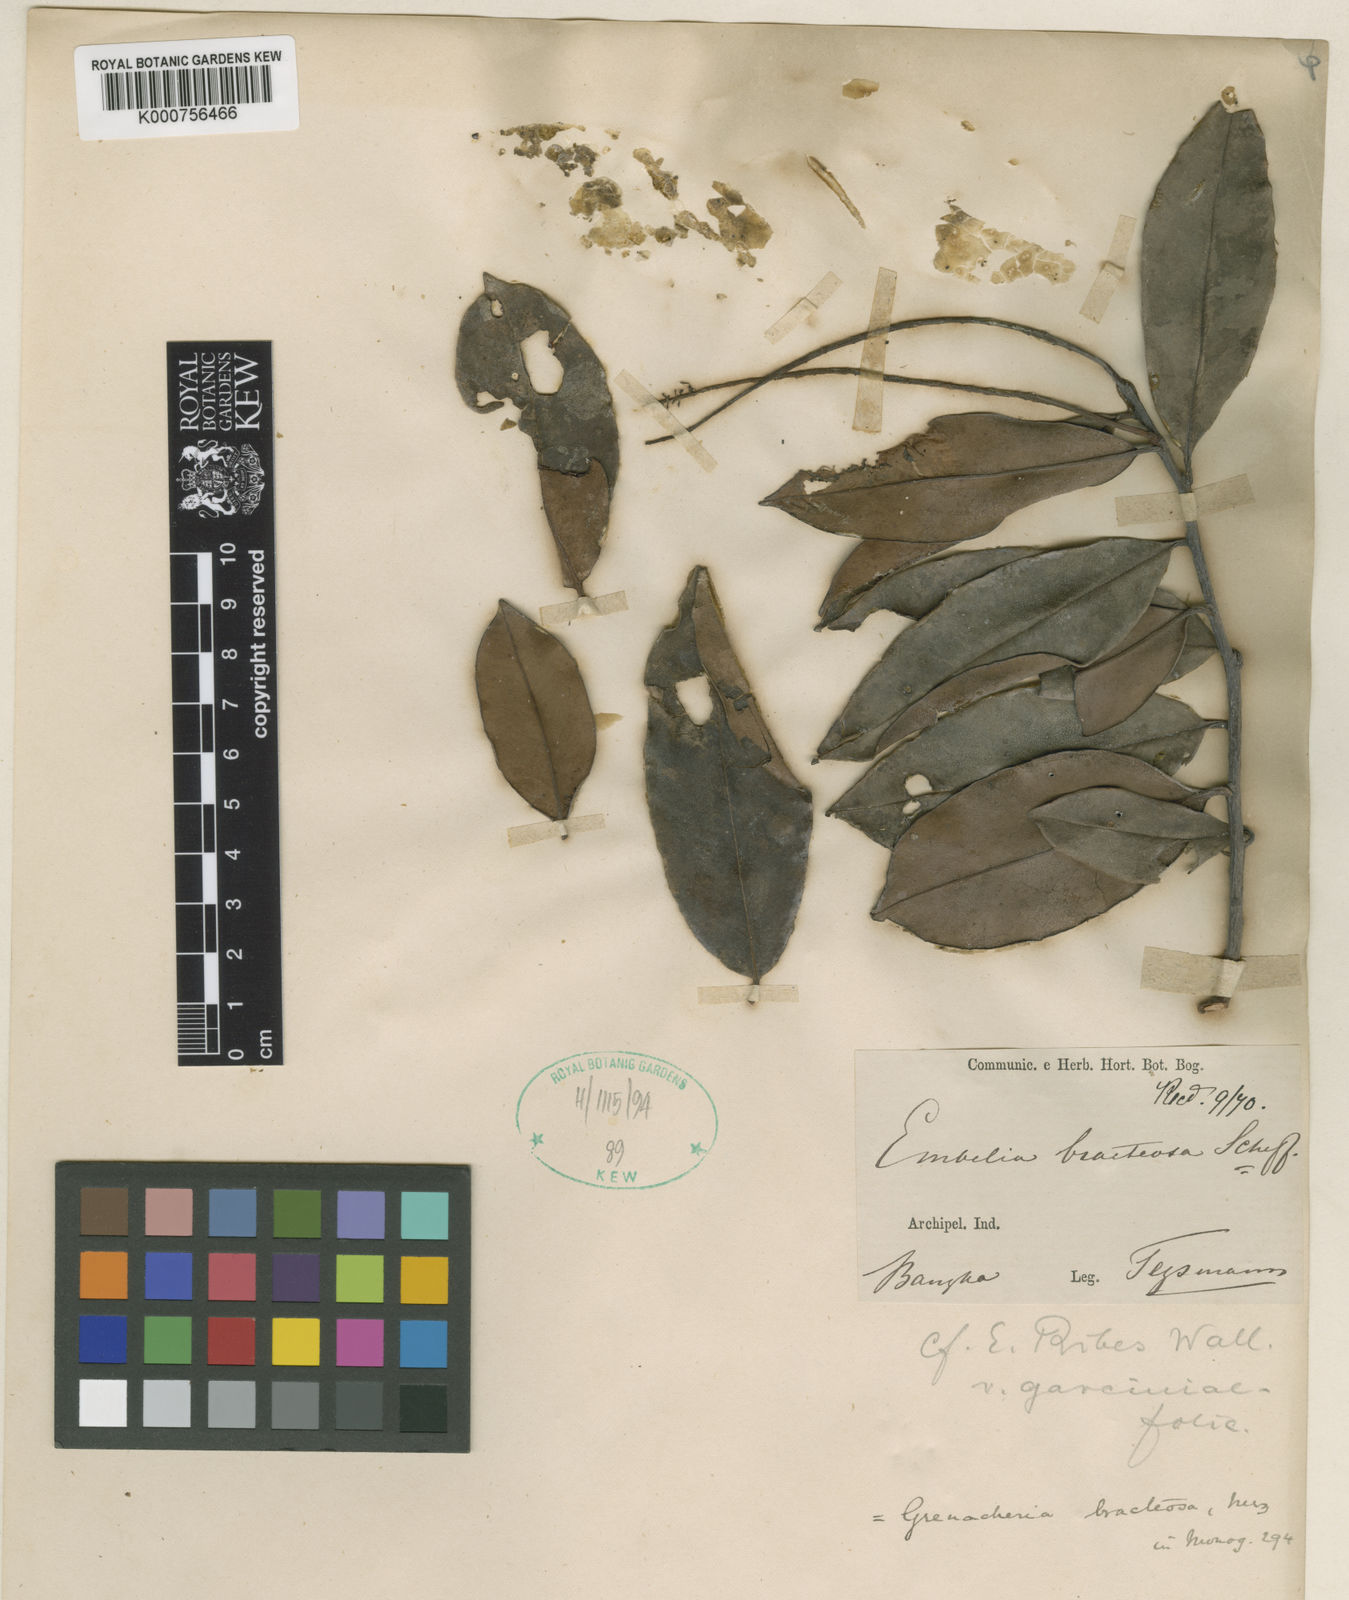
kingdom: Plantae
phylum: Tracheophyta
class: Magnoliopsida
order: Ericales
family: Primulaceae
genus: Grenacheria
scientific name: Grenacheria bracteosa
